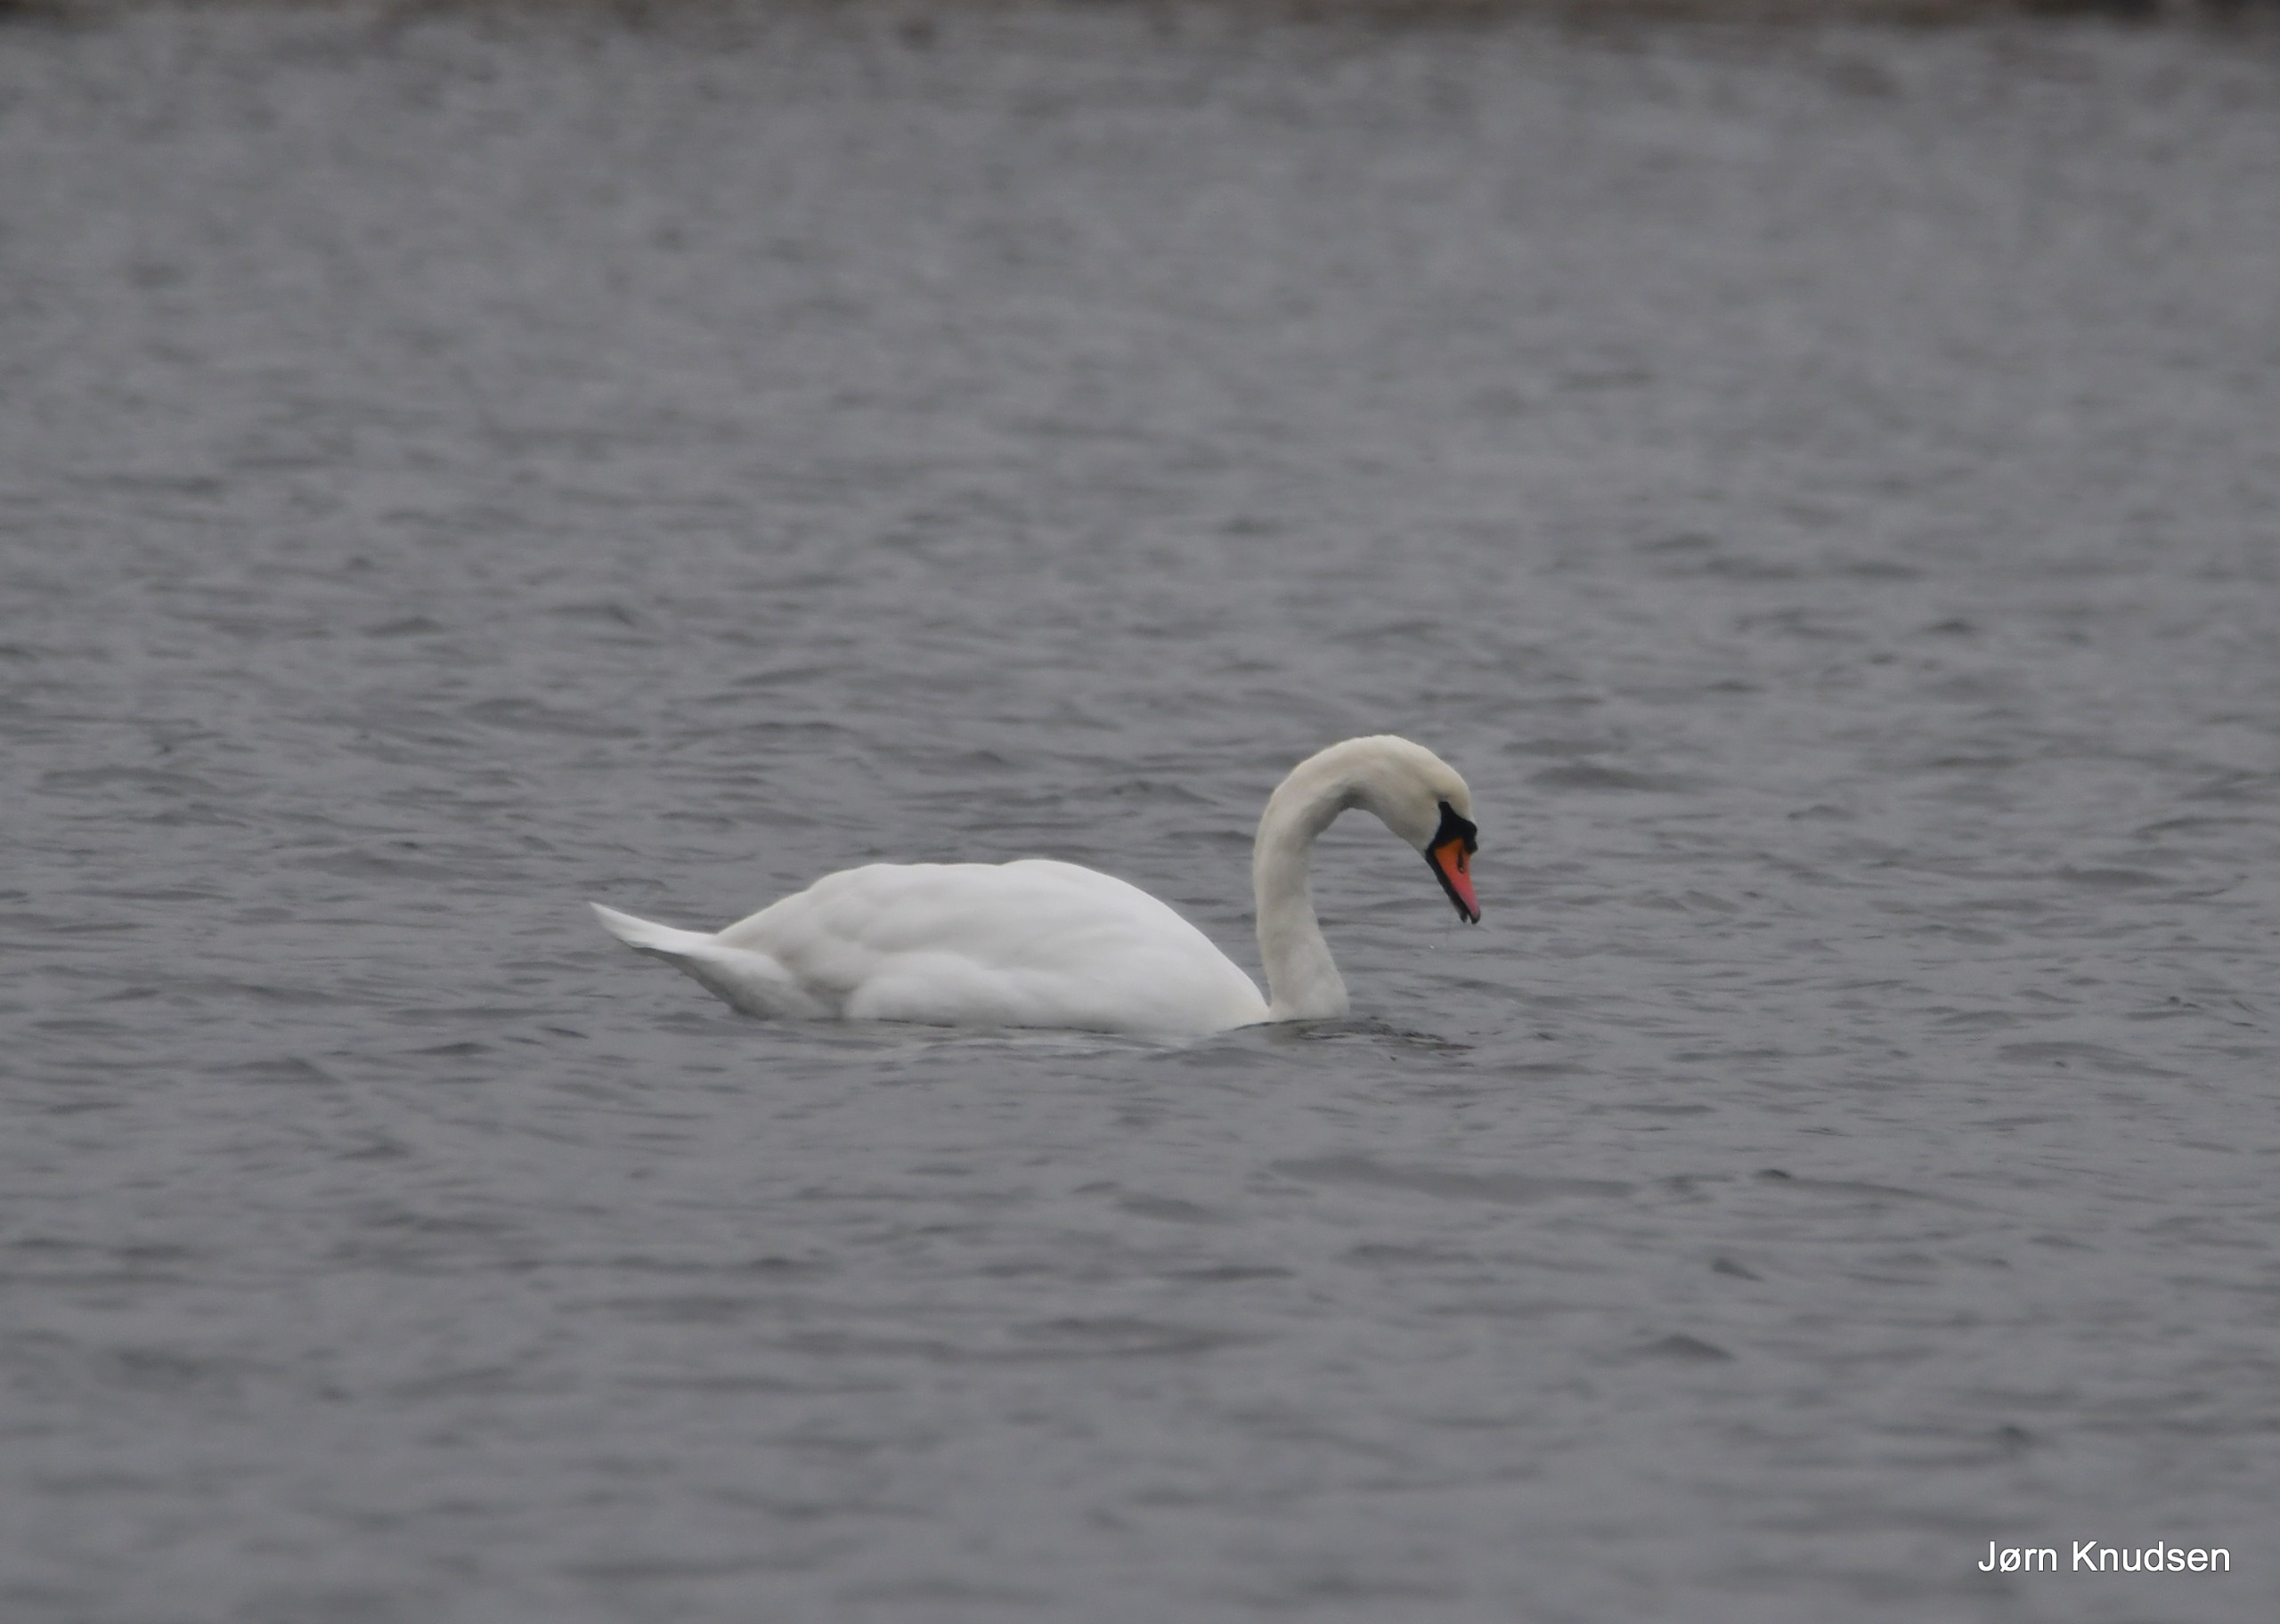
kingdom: Animalia
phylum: Chordata
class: Aves
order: Anseriformes
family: Anatidae
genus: Cygnus
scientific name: Cygnus olor
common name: Knopsvane
